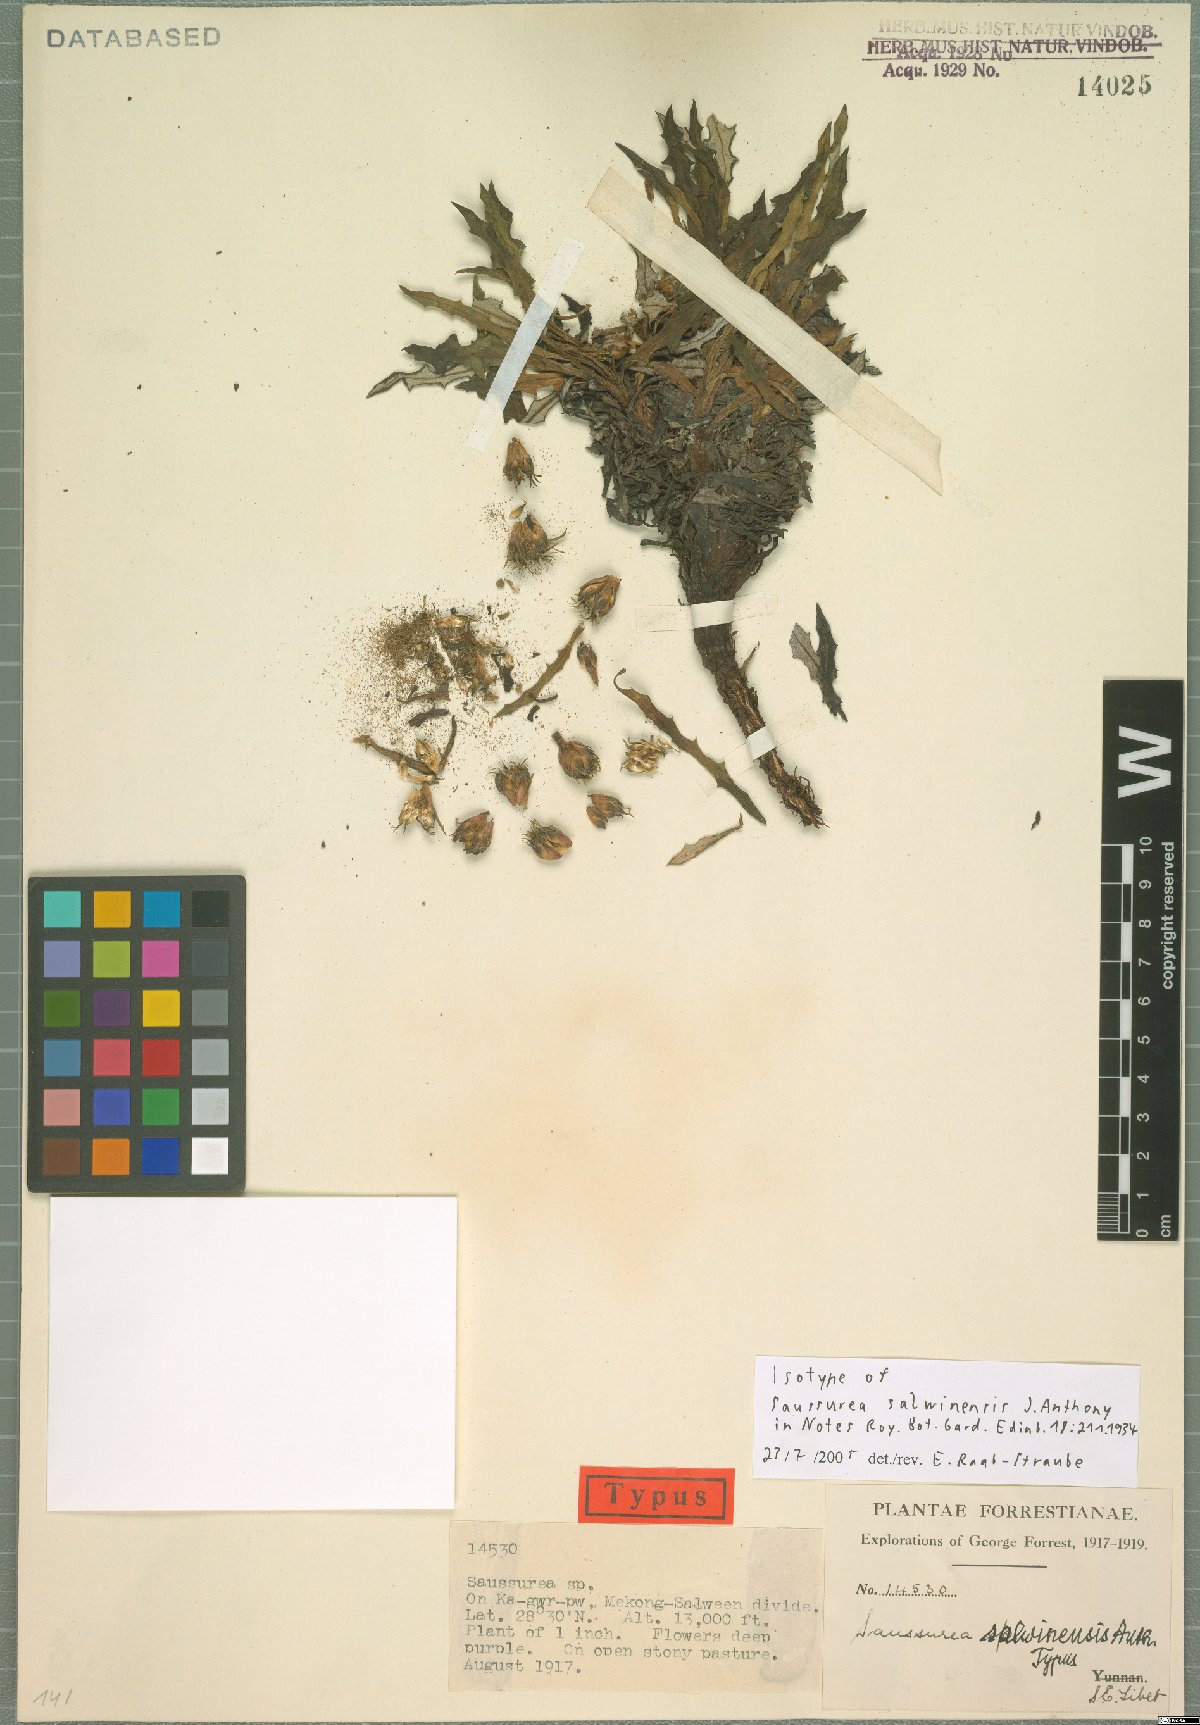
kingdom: Plantae
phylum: Tracheophyta
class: Magnoliopsida
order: Asterales
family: Asteraceae
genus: Saussurea
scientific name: Saussurea salwinensis
